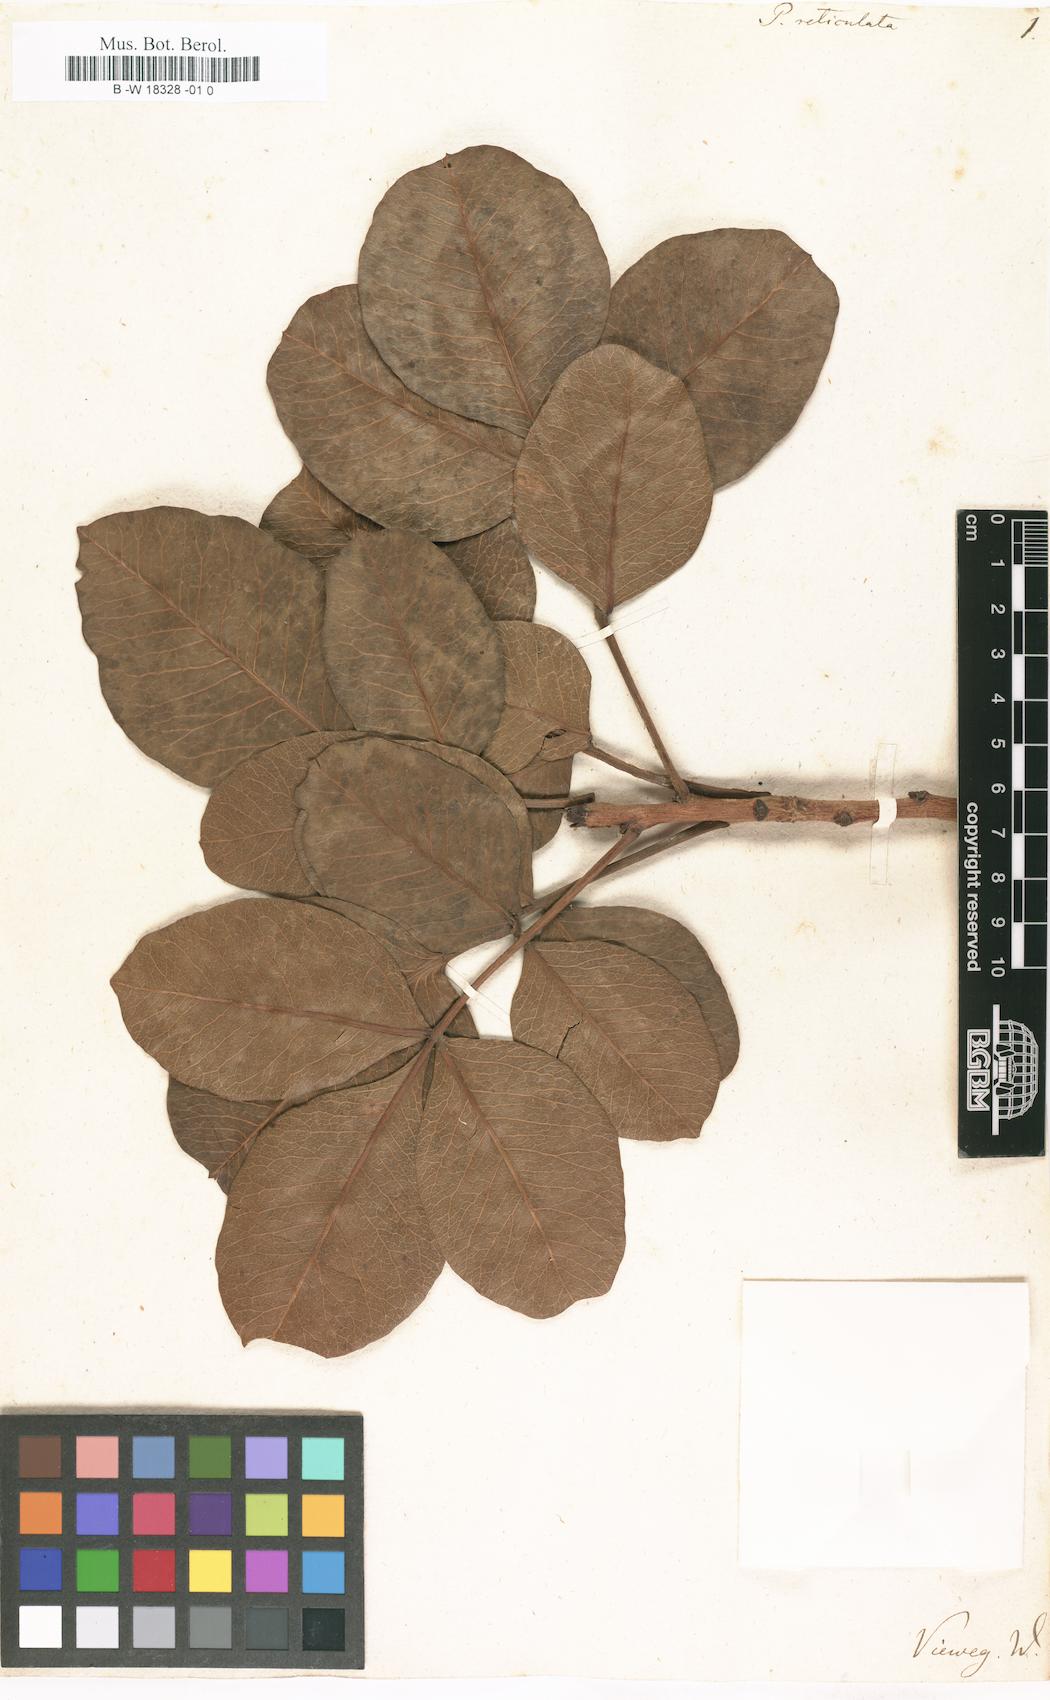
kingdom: Plantae
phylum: Tracheophyta
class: Magnoliopsida
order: Sapindales
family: Anacardiaceae
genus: Pistacia
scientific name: Pistacia vera
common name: Pistachio
